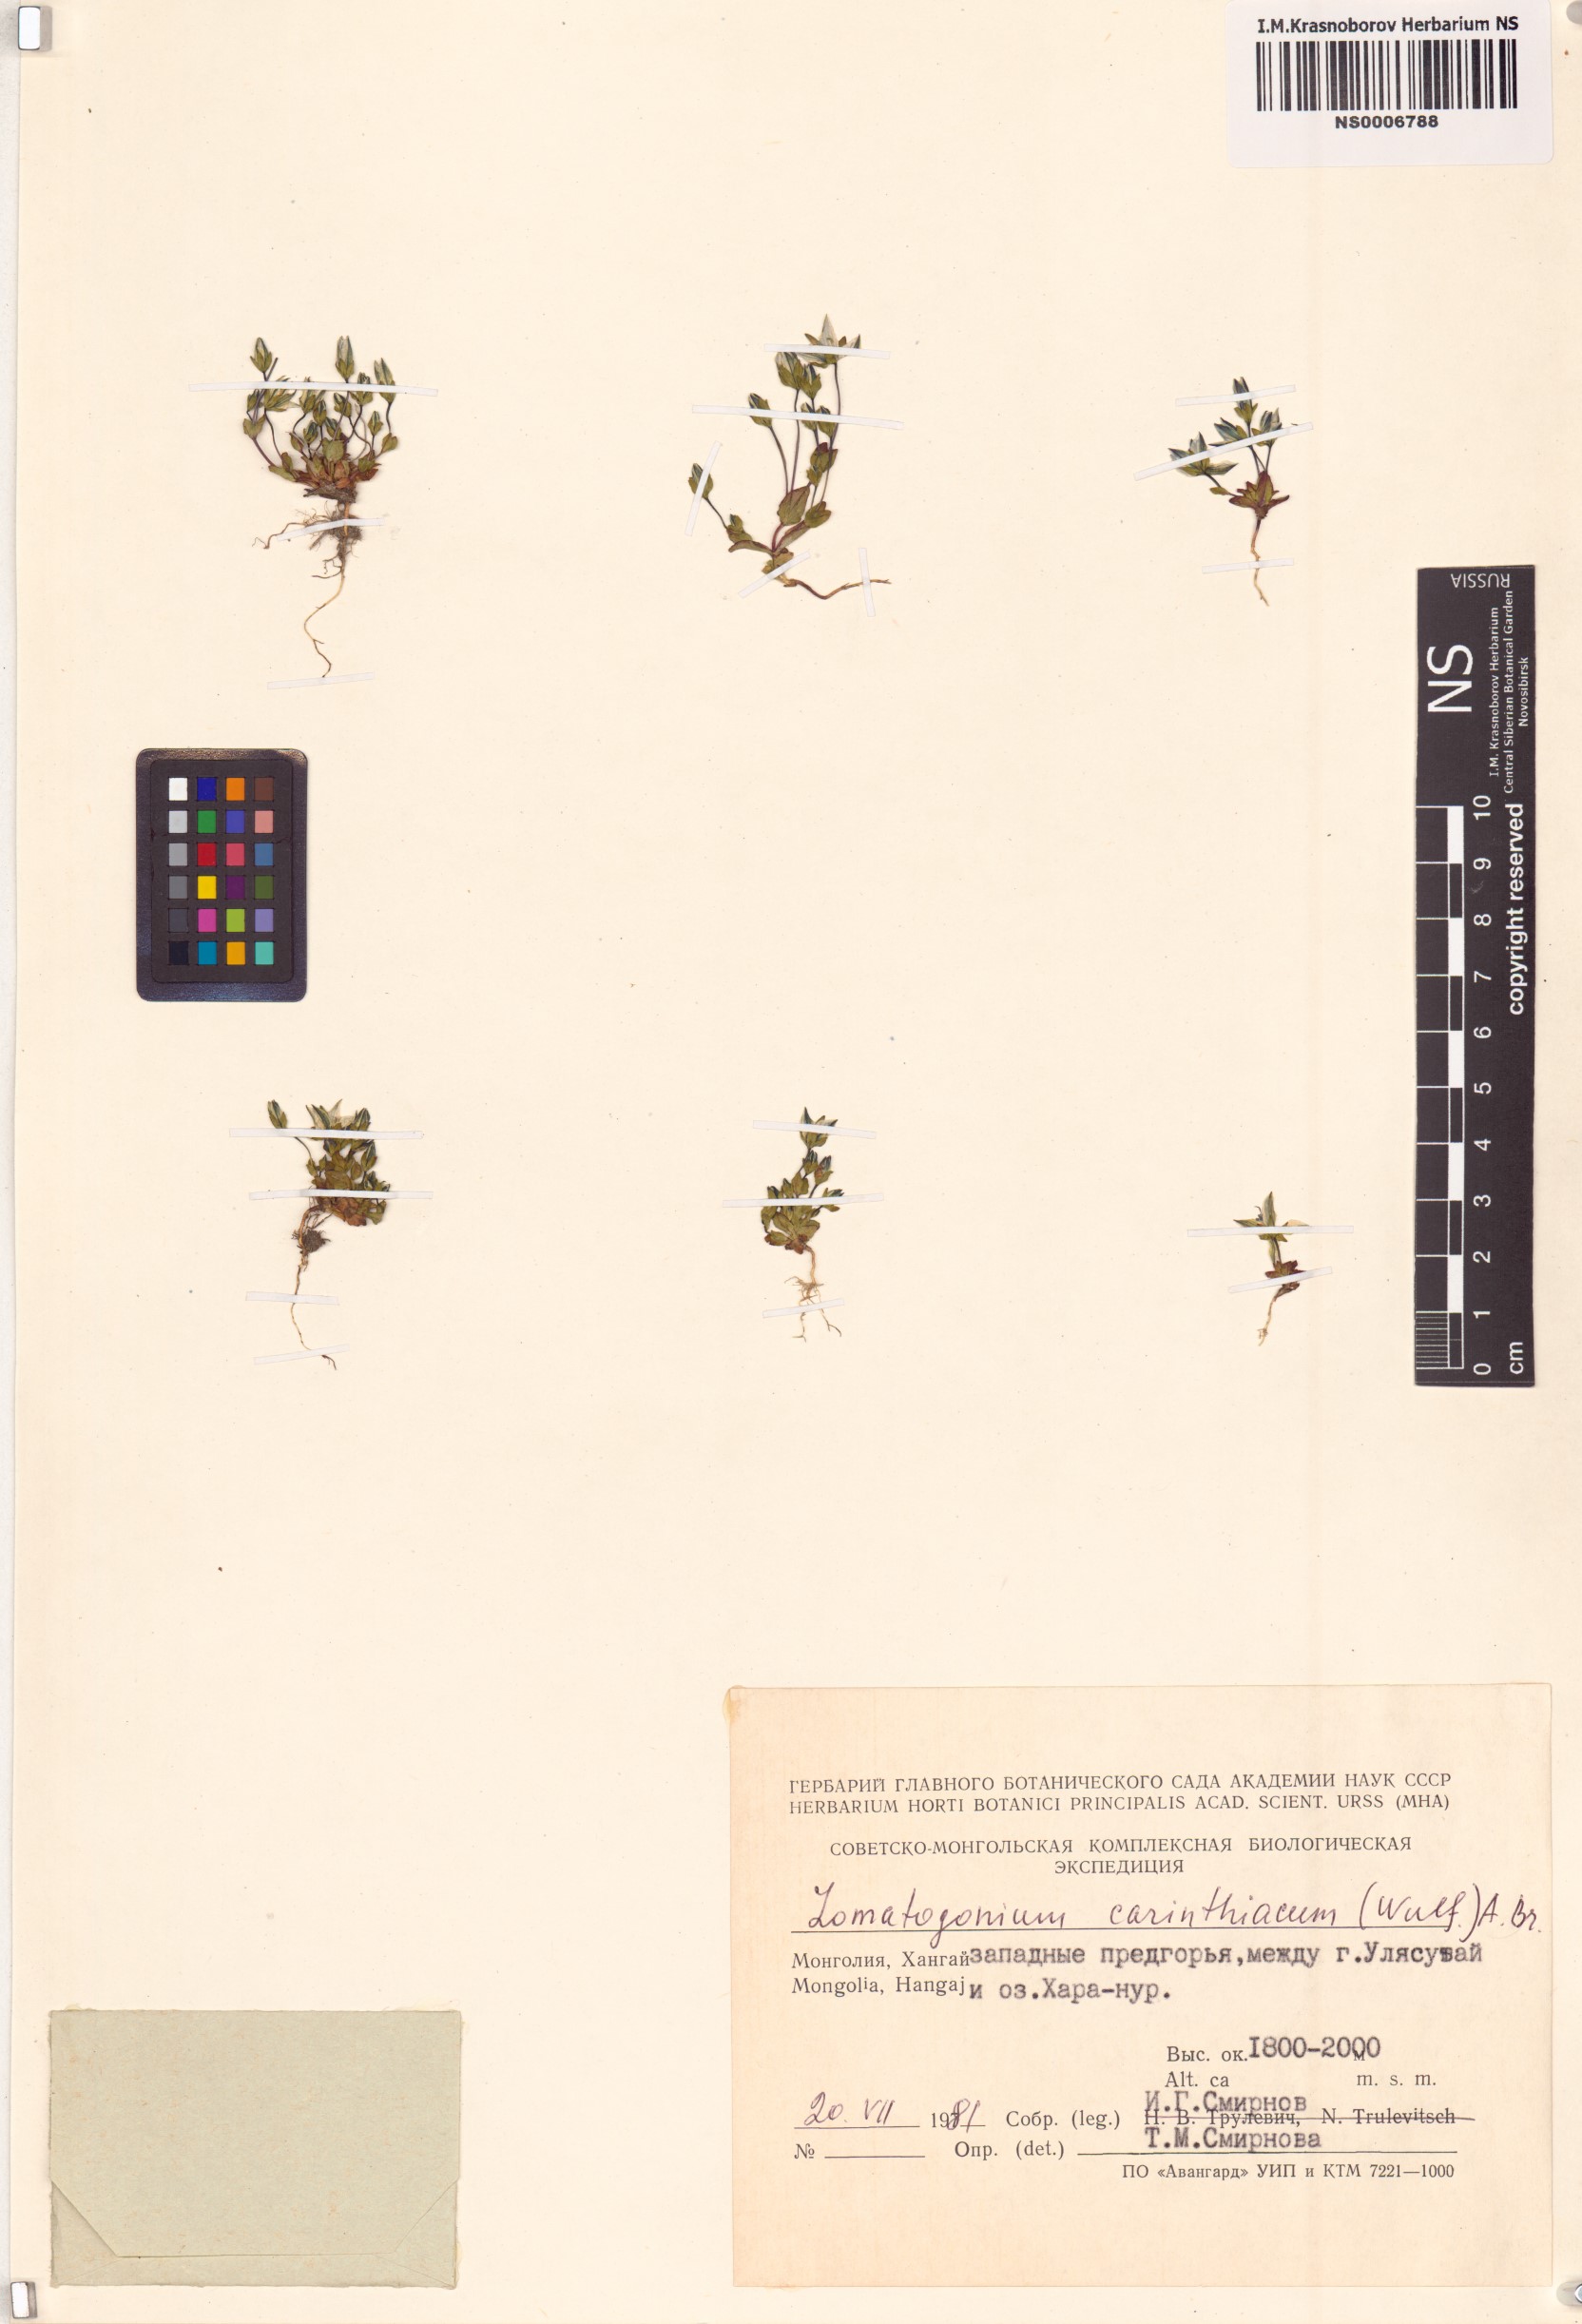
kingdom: Plantae
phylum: Tracheophyta
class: Magnoliopsida
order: Gentianales
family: Gentianaceae
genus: Lomatogonium
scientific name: Lomatogonium carinthiacum
